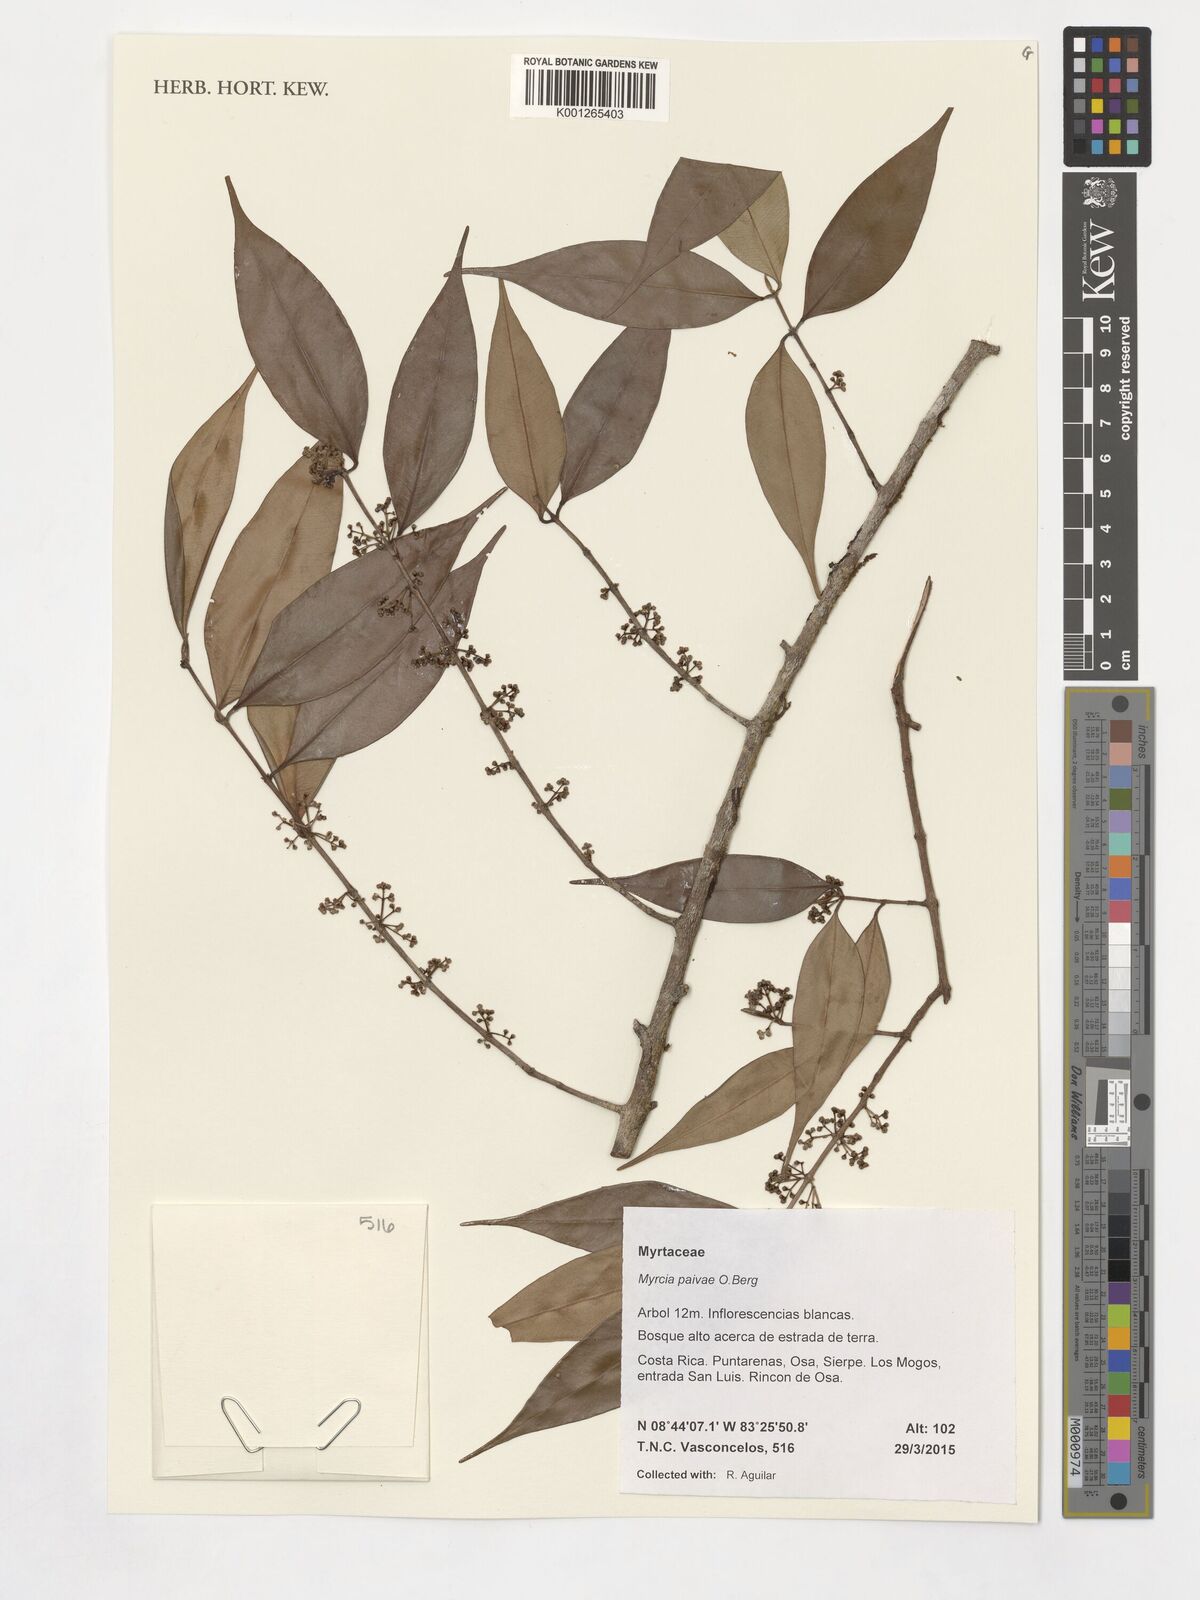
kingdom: Plantae
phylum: Tracheophyta
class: Magnoliopsida
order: Myrtales
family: Myrtaceae
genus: Myrcia
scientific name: Myrcia paivae
